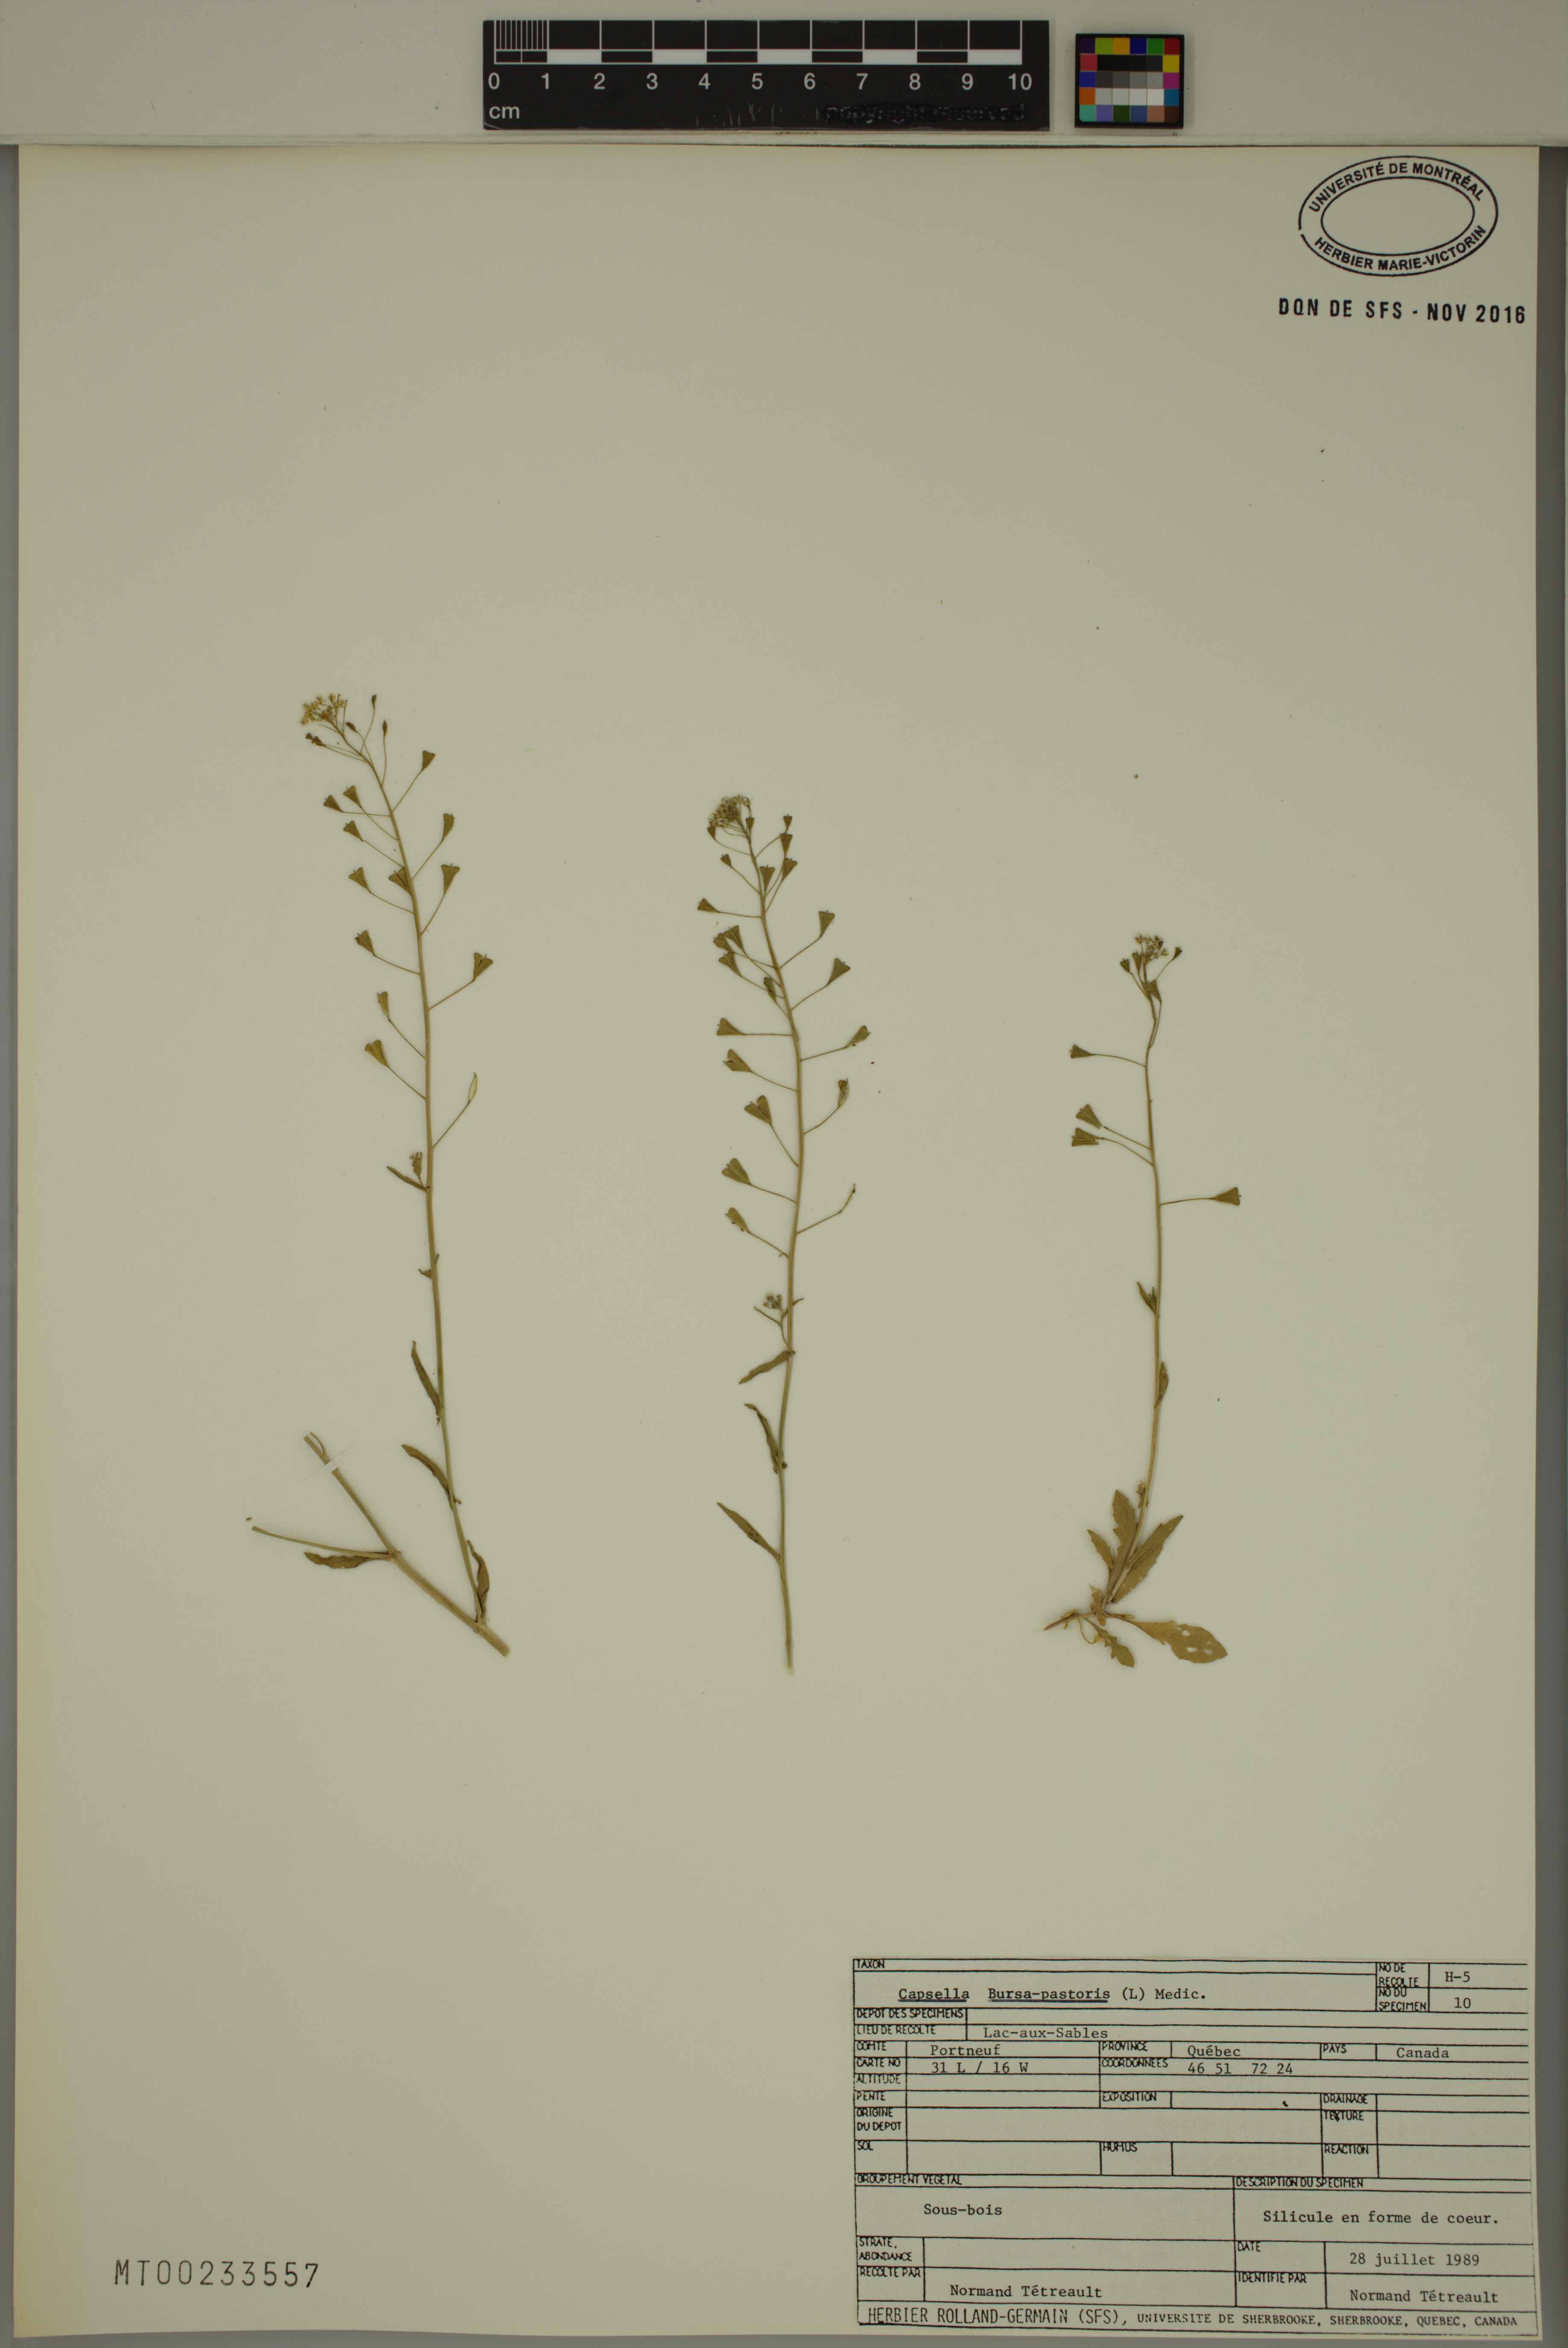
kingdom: Plantae
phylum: Tracheophyta
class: Magnoliopsida
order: Brassicales
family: Brassicaceae
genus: Capsella
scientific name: Capsella bursa-pastoris
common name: Shepherd's purse
